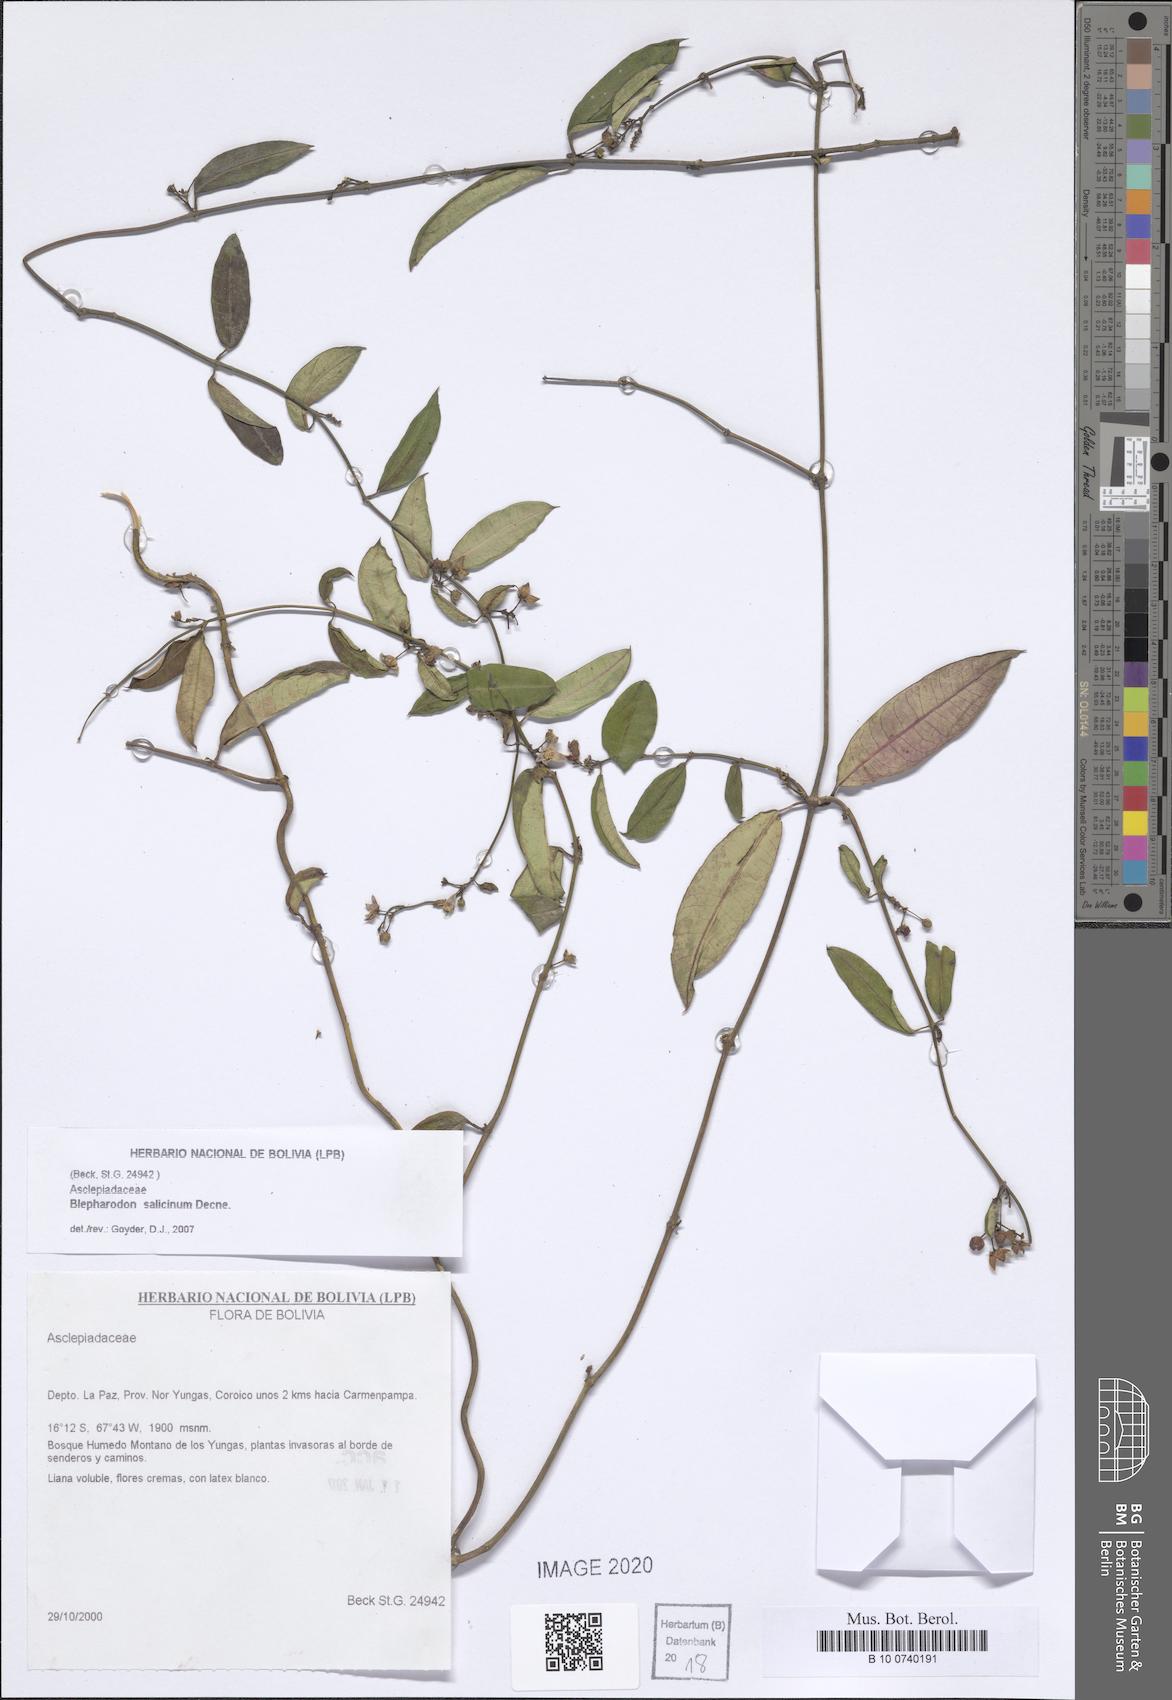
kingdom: Plantae
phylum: Tracheophyta
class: Magnoliopsida
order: Gentianales
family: Apocynaceae
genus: Vailia
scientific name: Vailia salicina
